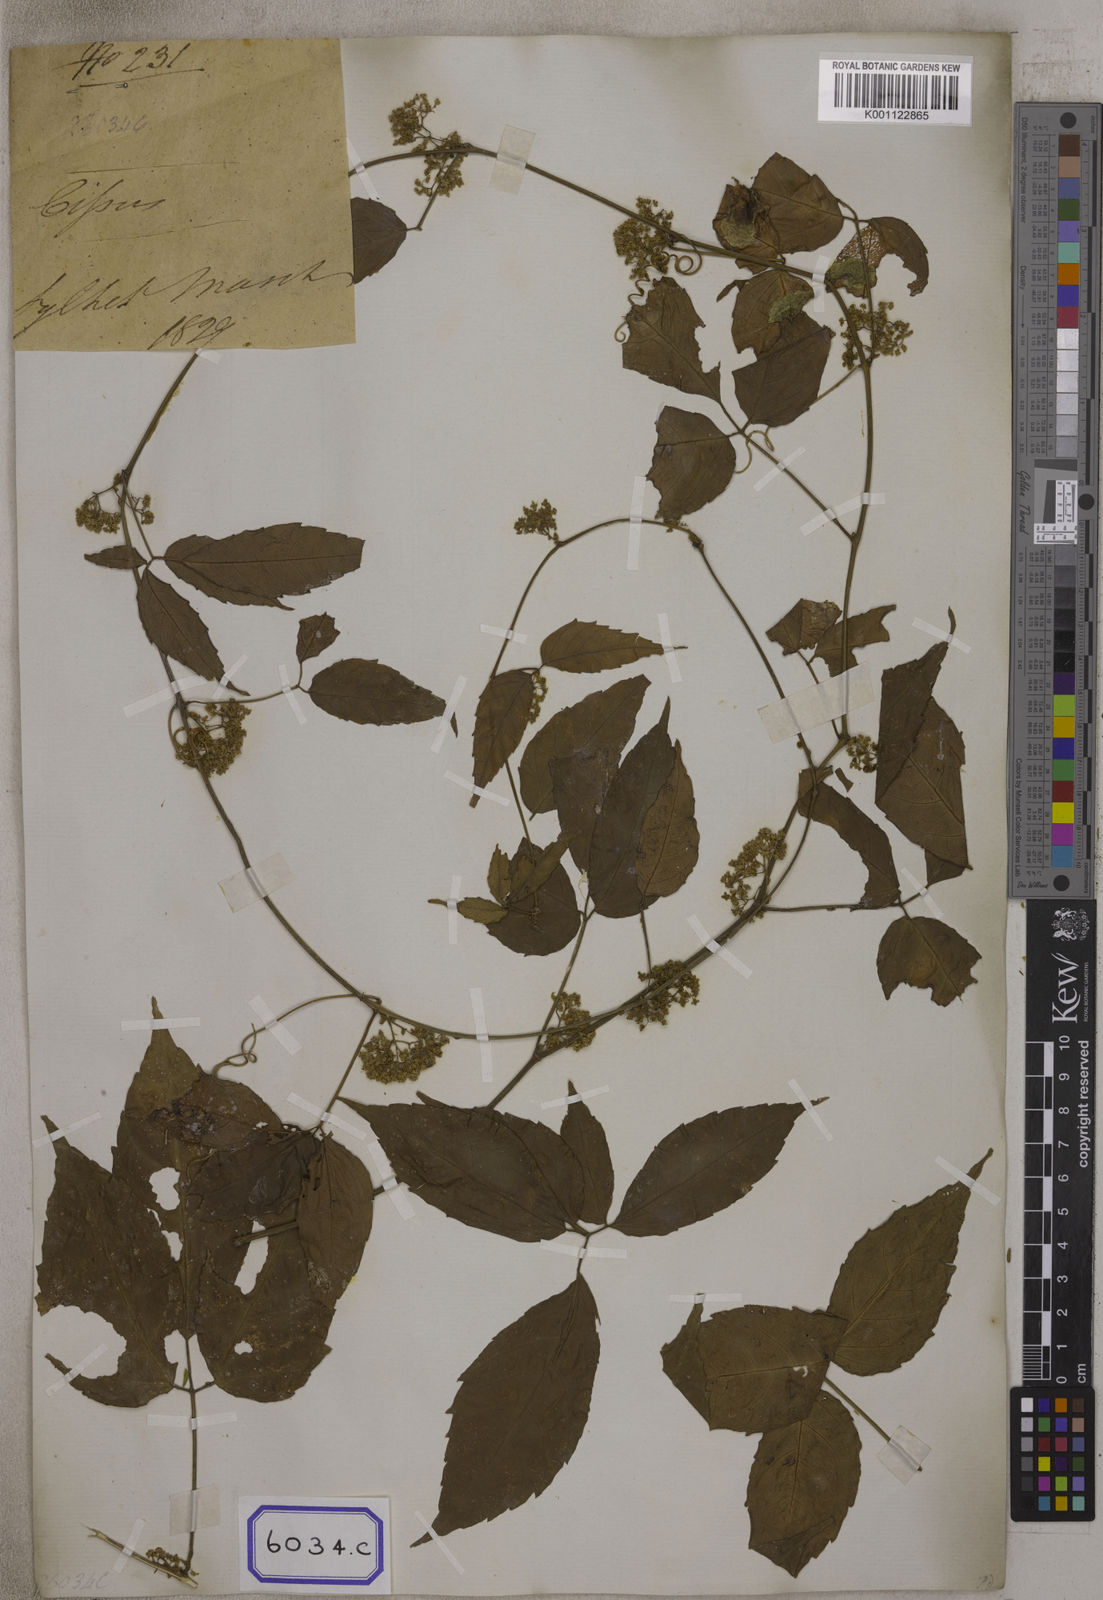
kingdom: Plantae
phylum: Tracheophyta
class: Magnoliopsida
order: Vitales
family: Vitaceae
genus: Tetrastigma
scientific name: Tetrastigma serrulatum
